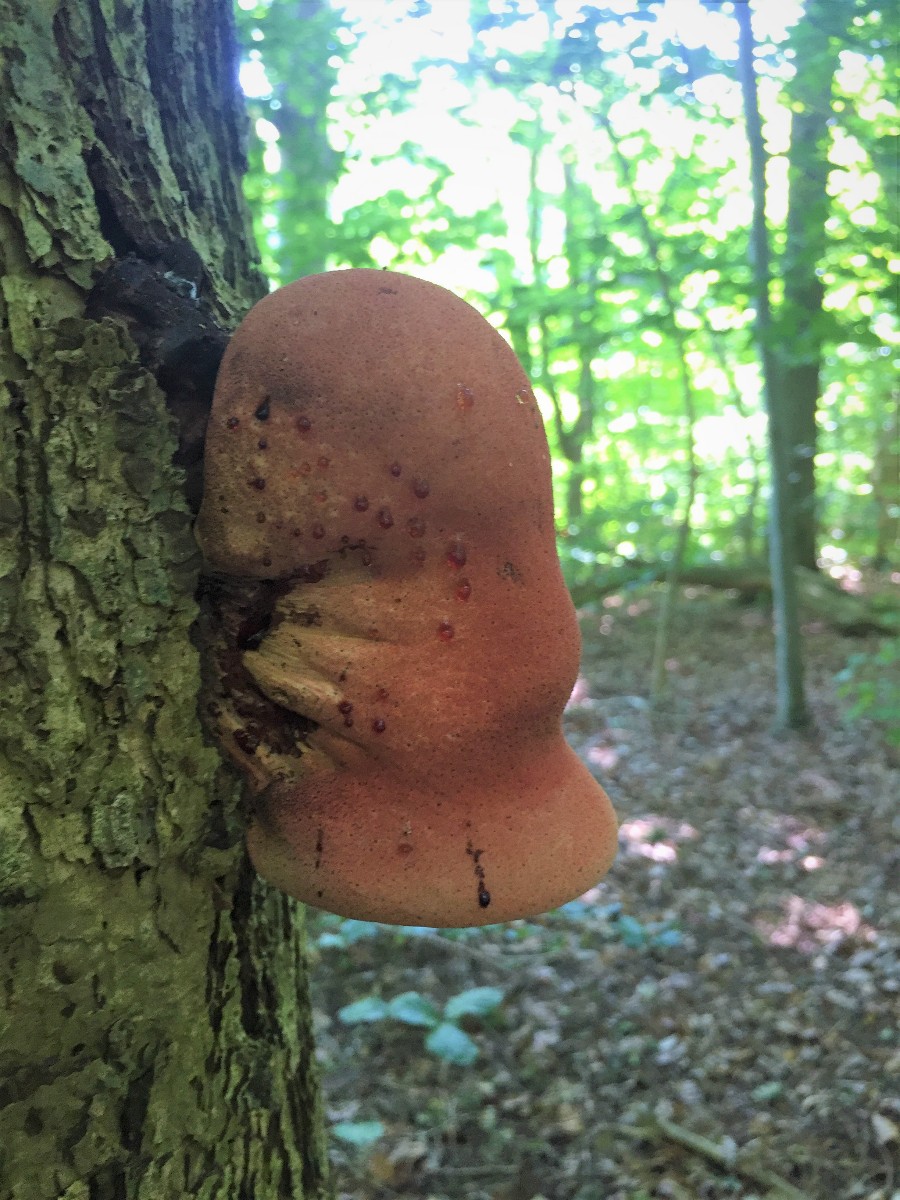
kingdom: Fungi
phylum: Basidiomycota
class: Agaricomycetes
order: Agaricales
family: Fistulinaceae
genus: Fistulina
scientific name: Fistulina hepatica
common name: oksetunge
